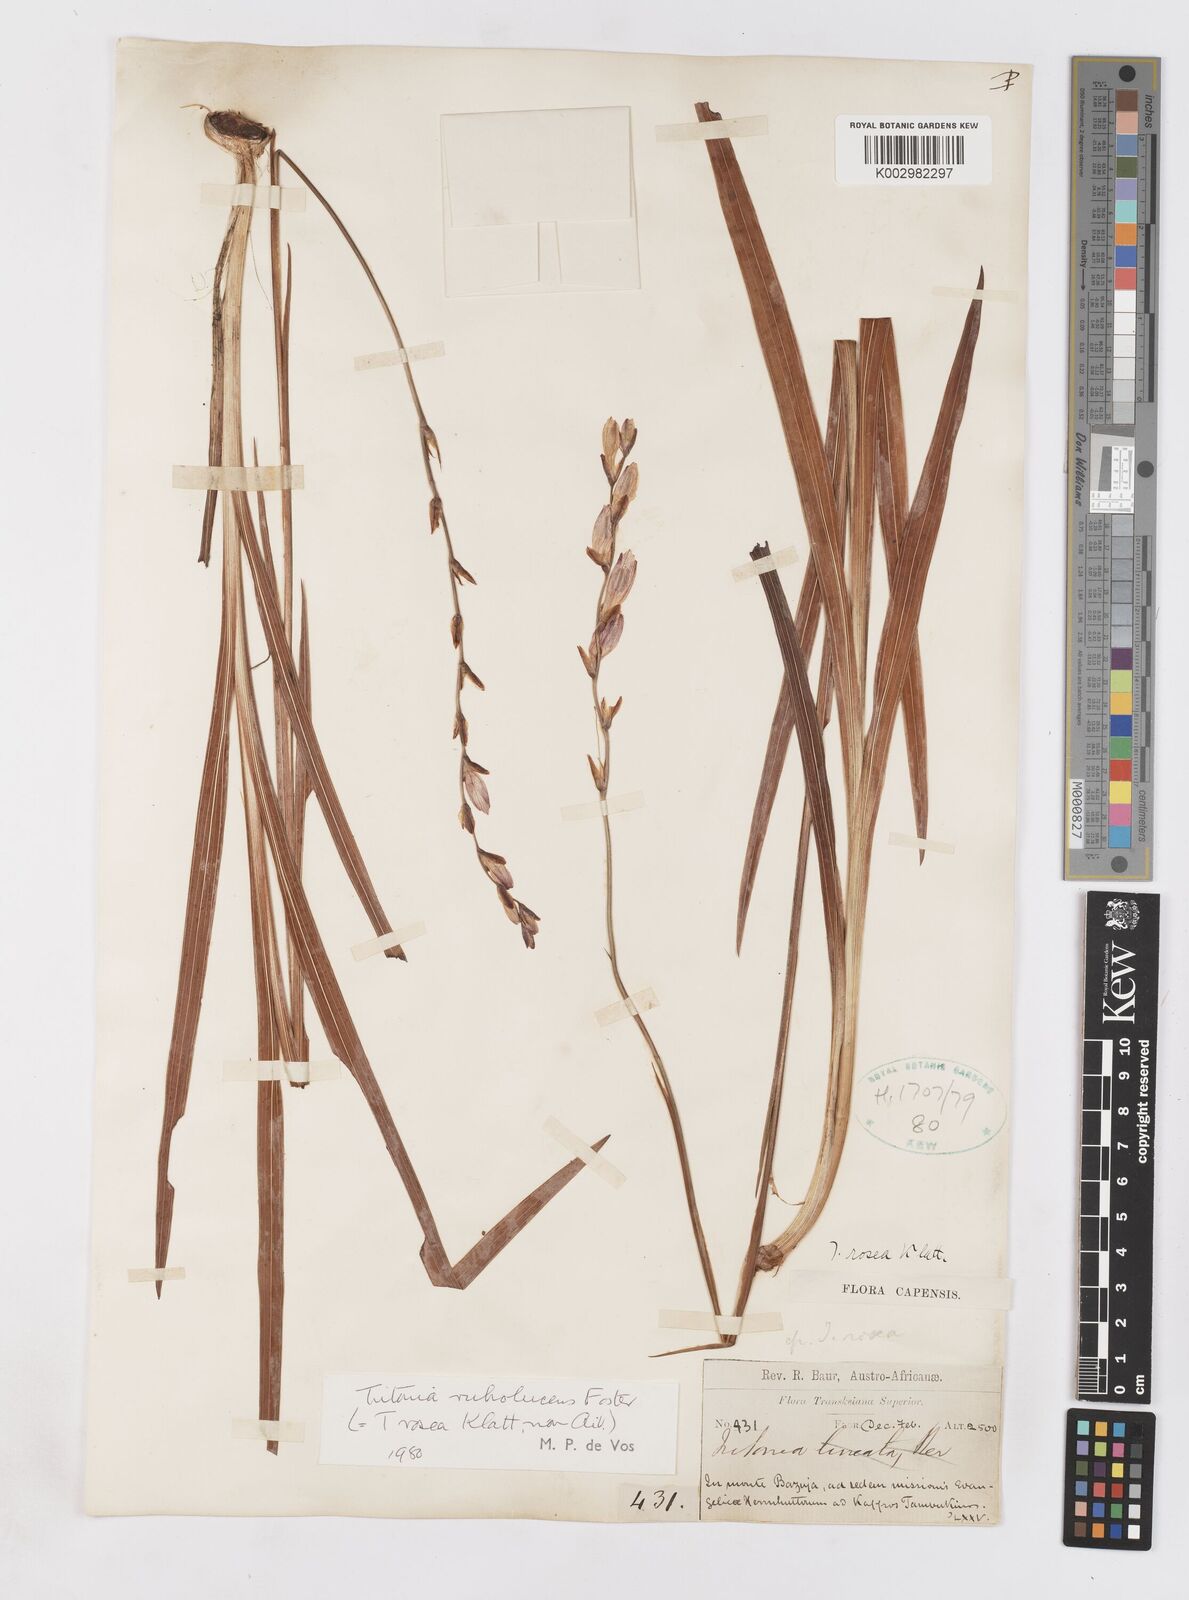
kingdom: Plantae
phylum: Tracheophyta
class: Liliopsida
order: Asparagales
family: Iridaceae
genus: Tritonia
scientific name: Tritonia disticha
